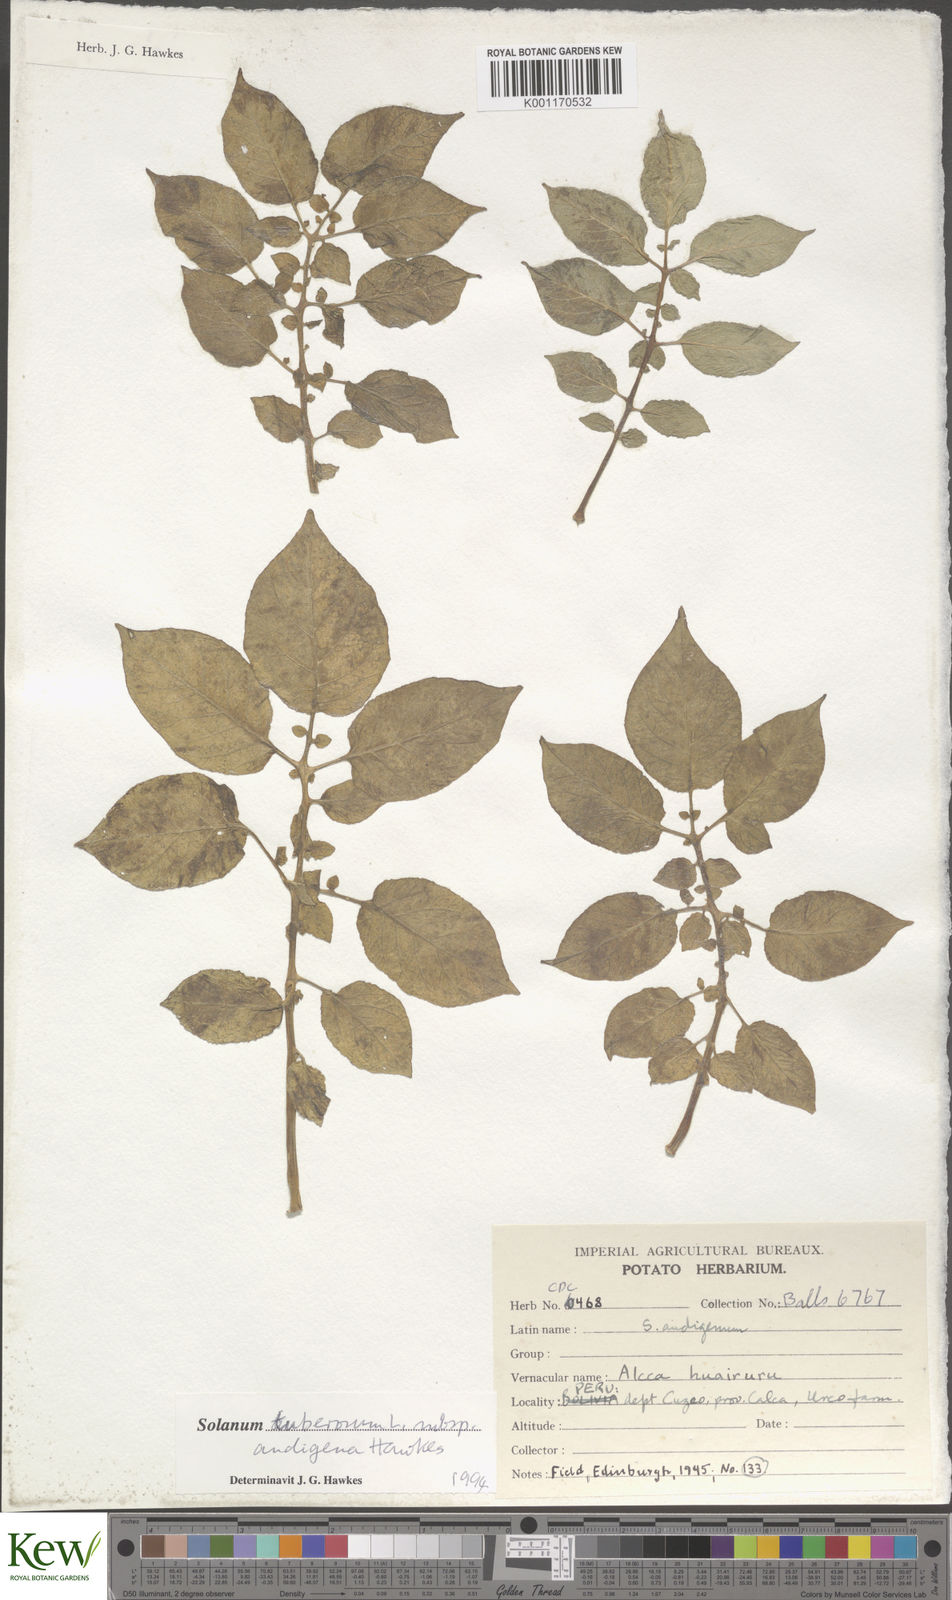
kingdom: Plantae
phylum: Tracheophyta
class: Magnoliopsida
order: Solanales
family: Solanaceae
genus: Solanum
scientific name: Solanum tuberosum
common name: Potato
